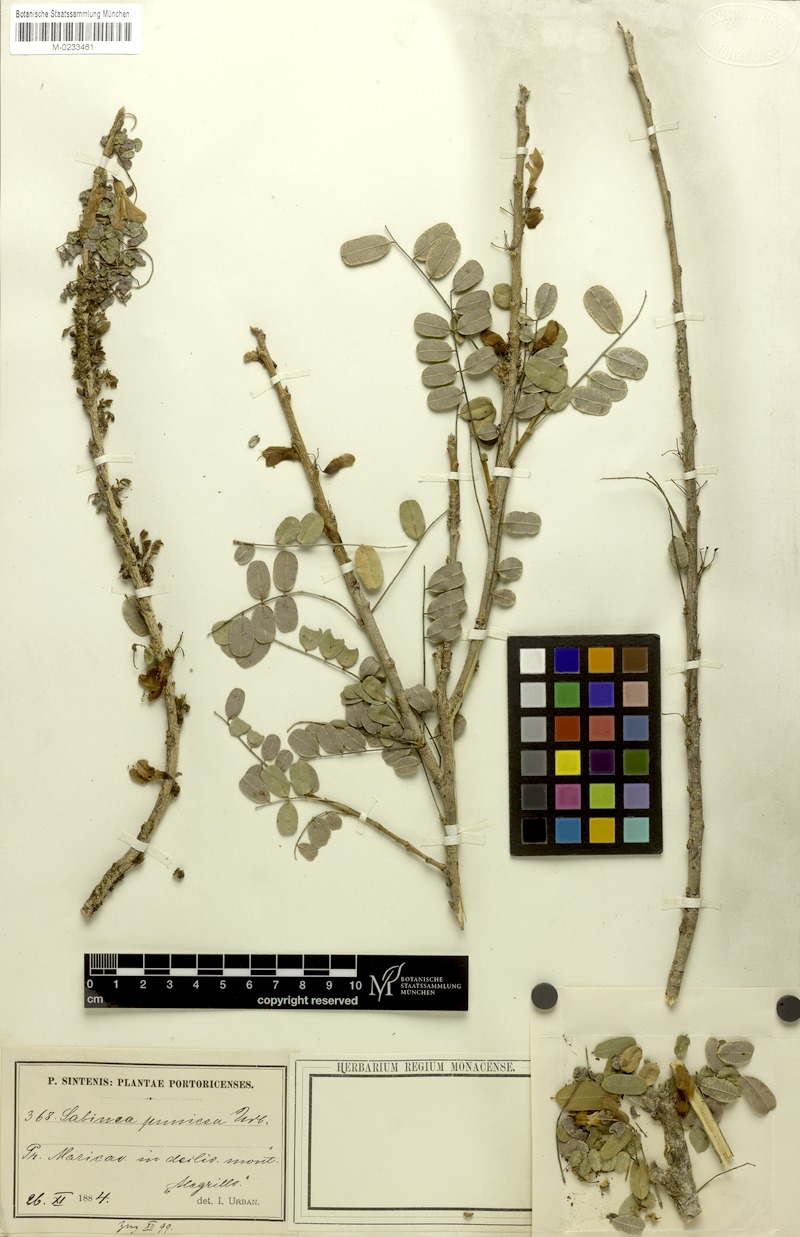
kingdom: Plantae
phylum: Tracheophyta
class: Magnoliopsida
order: Fabales
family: Fabaceae
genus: Poitea
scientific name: Poitea punicea
